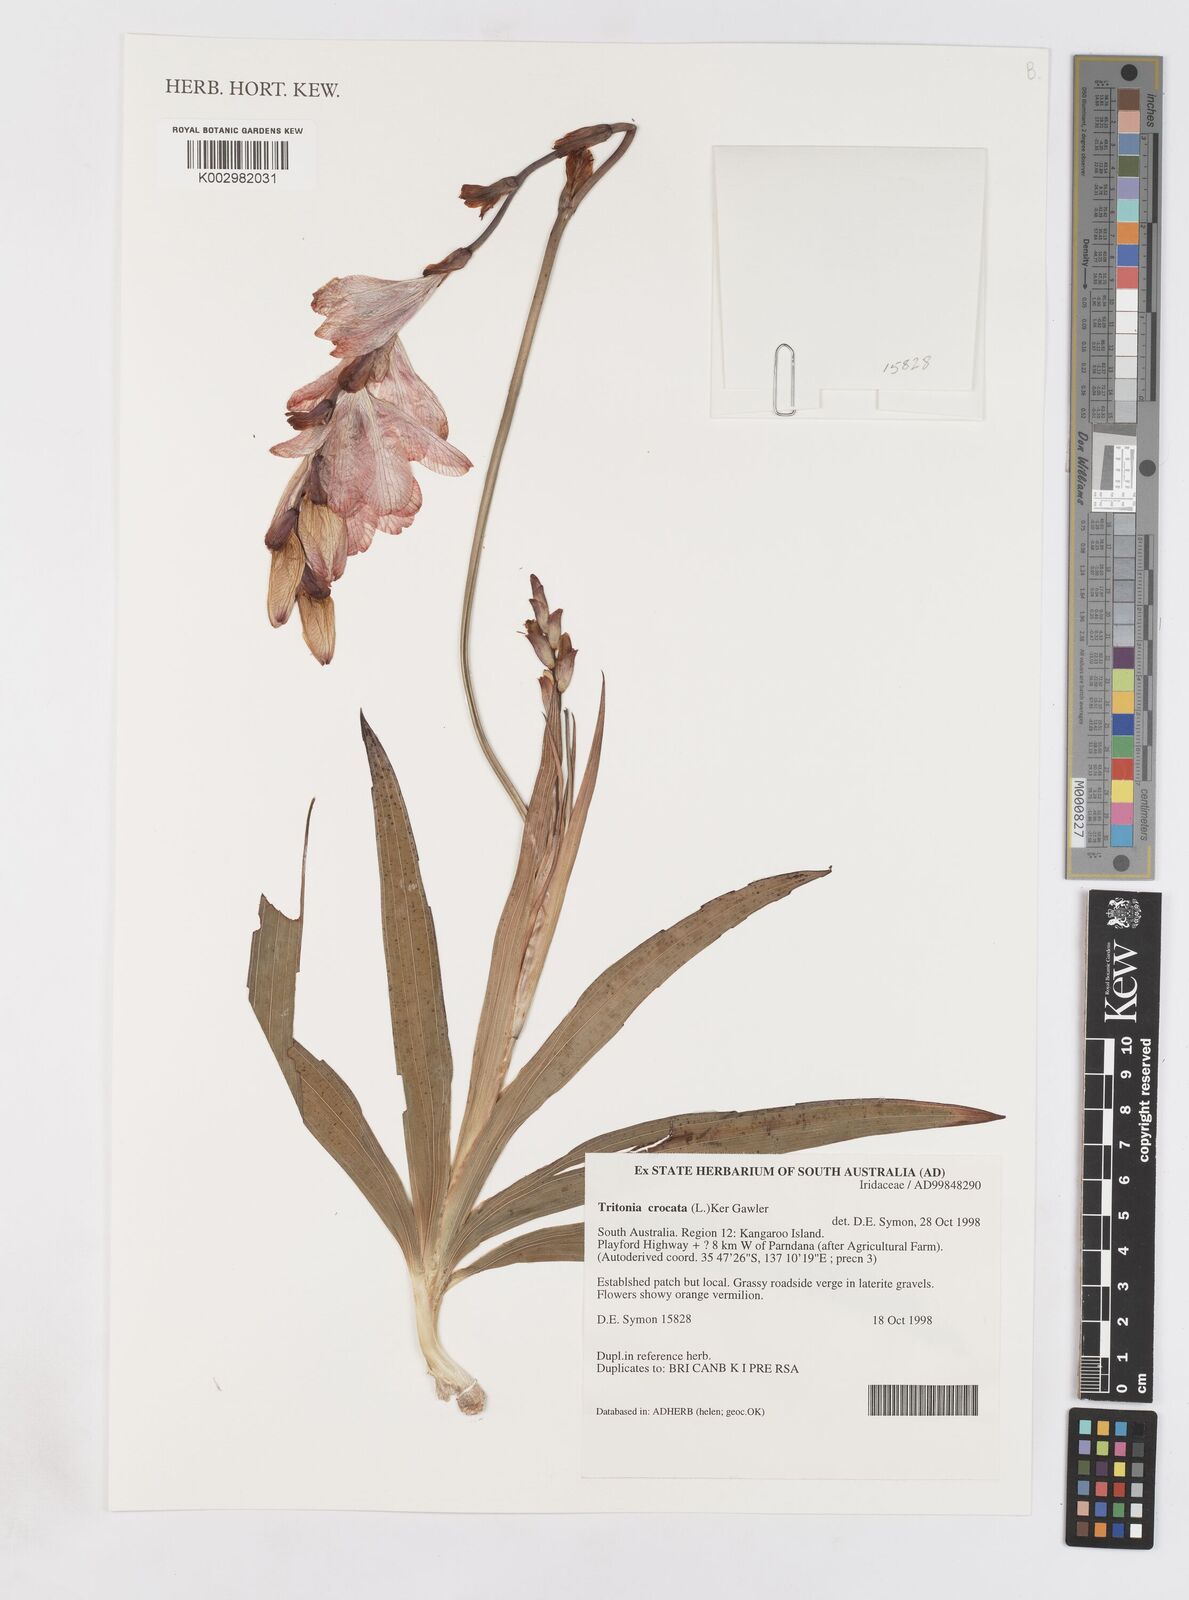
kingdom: Plantae
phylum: Tracheophyta
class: Liliopsida
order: Asparagales
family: Iridaceae
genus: Tritonia
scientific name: Tritonia crocata
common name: Flame-freesia
